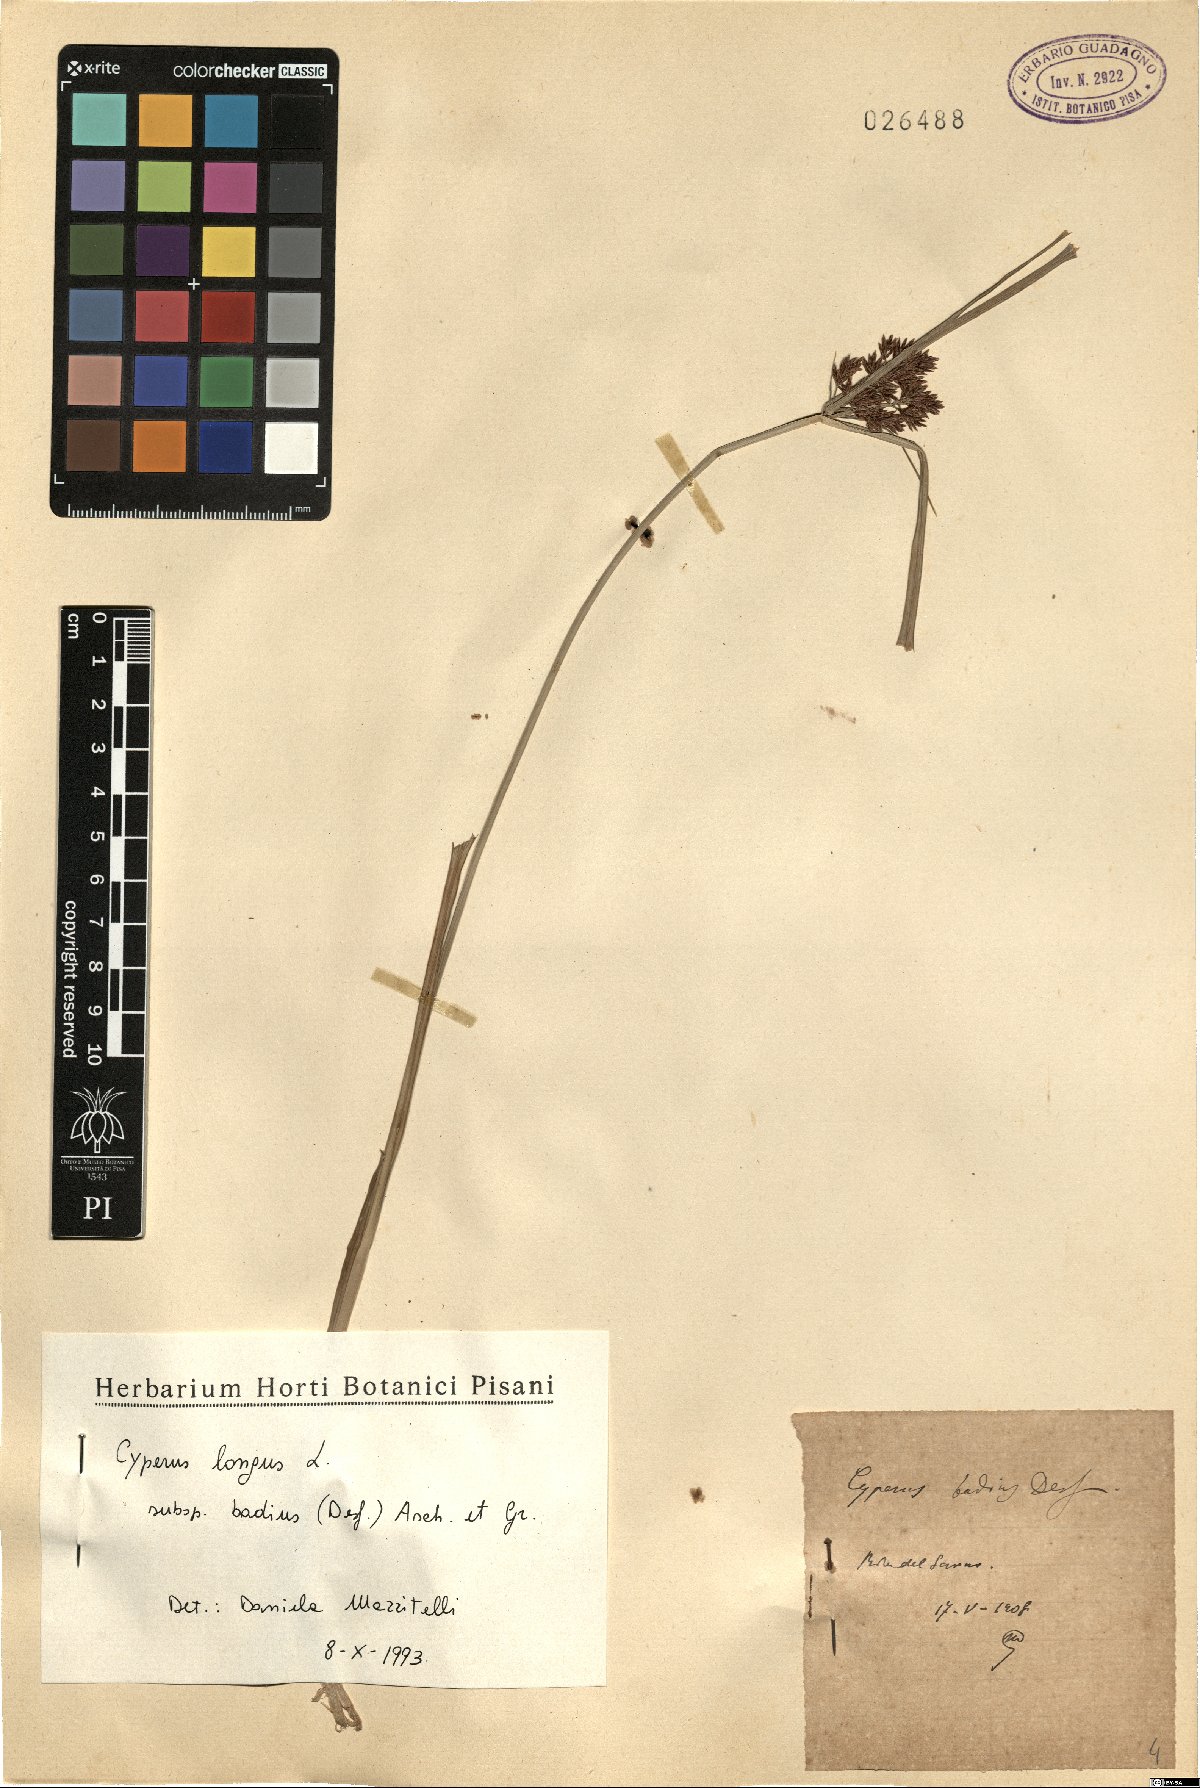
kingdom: Plantae
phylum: Tracheophyta
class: Liliopsida
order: Poales
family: Cyperaceae
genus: Cyperus
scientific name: Cyperus longus
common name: Galingale
